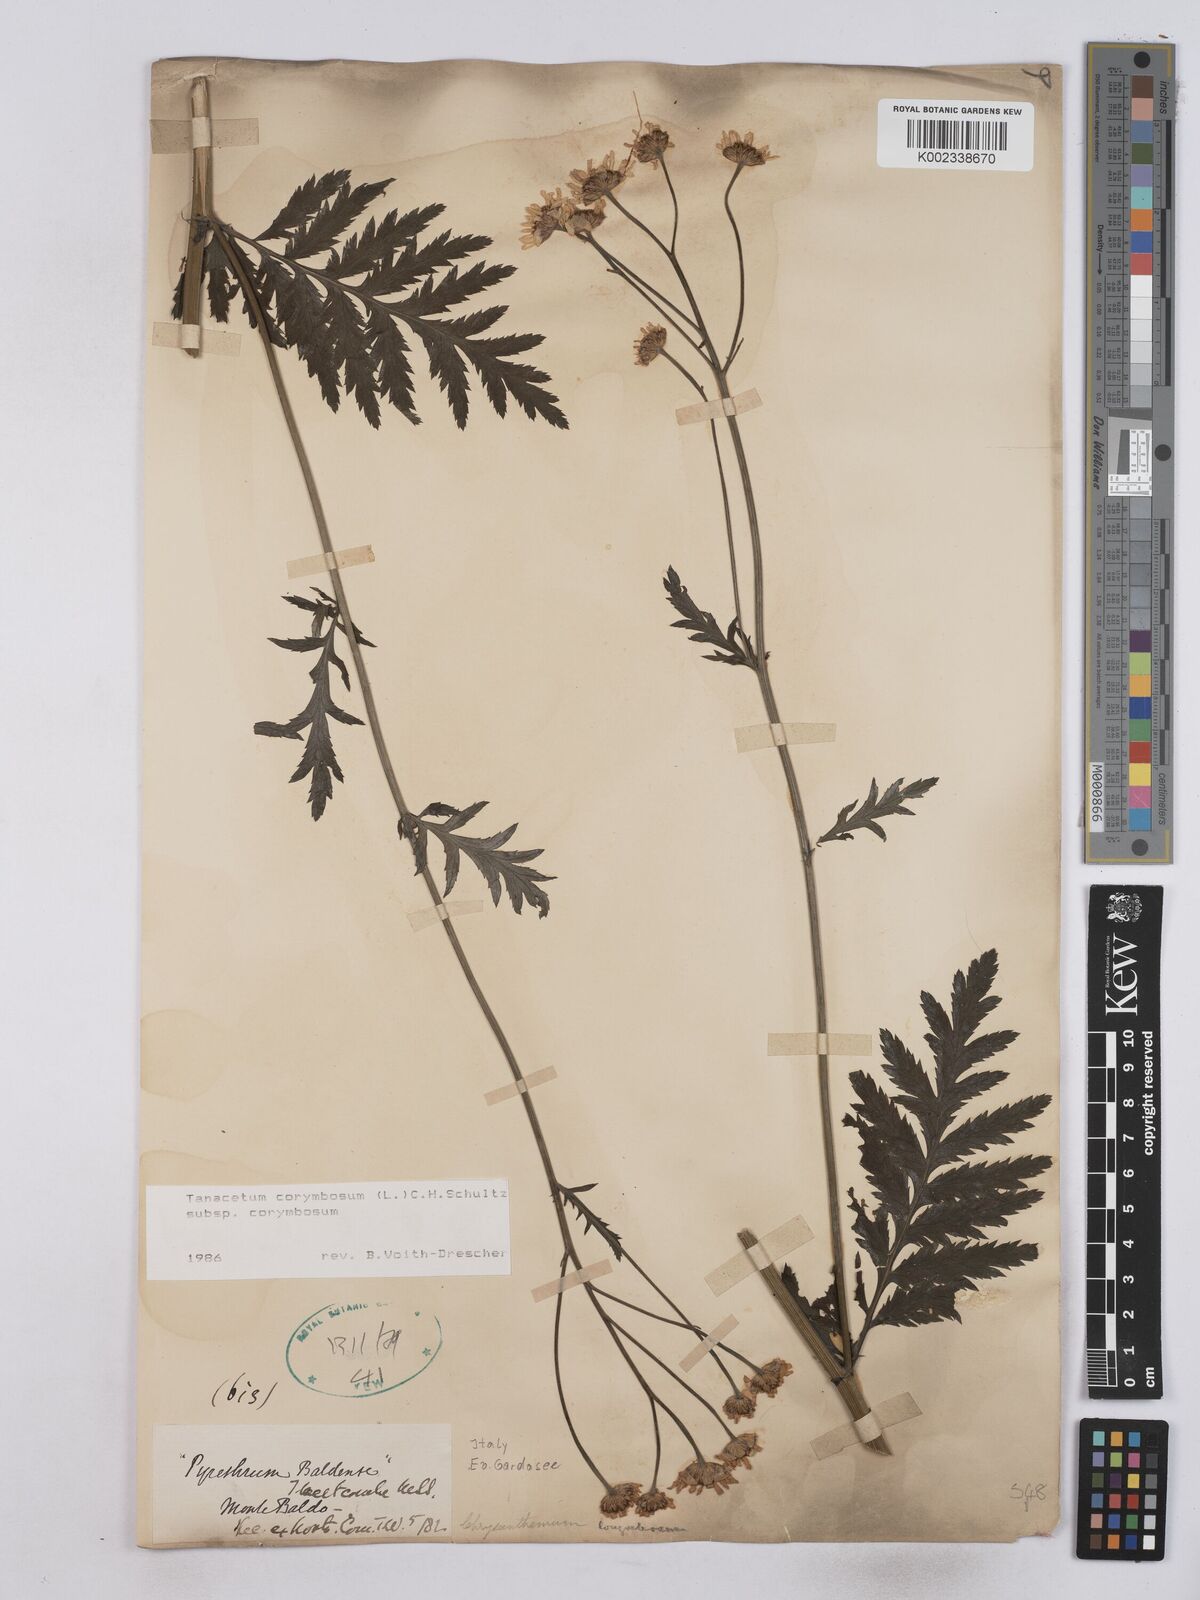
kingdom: Plantae
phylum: Tracheophyta
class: Magnoliopsida
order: Asterales
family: Asteraceae
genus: Tanacetum
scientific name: Tanacetum corymbosum
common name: Scentless feverfew
